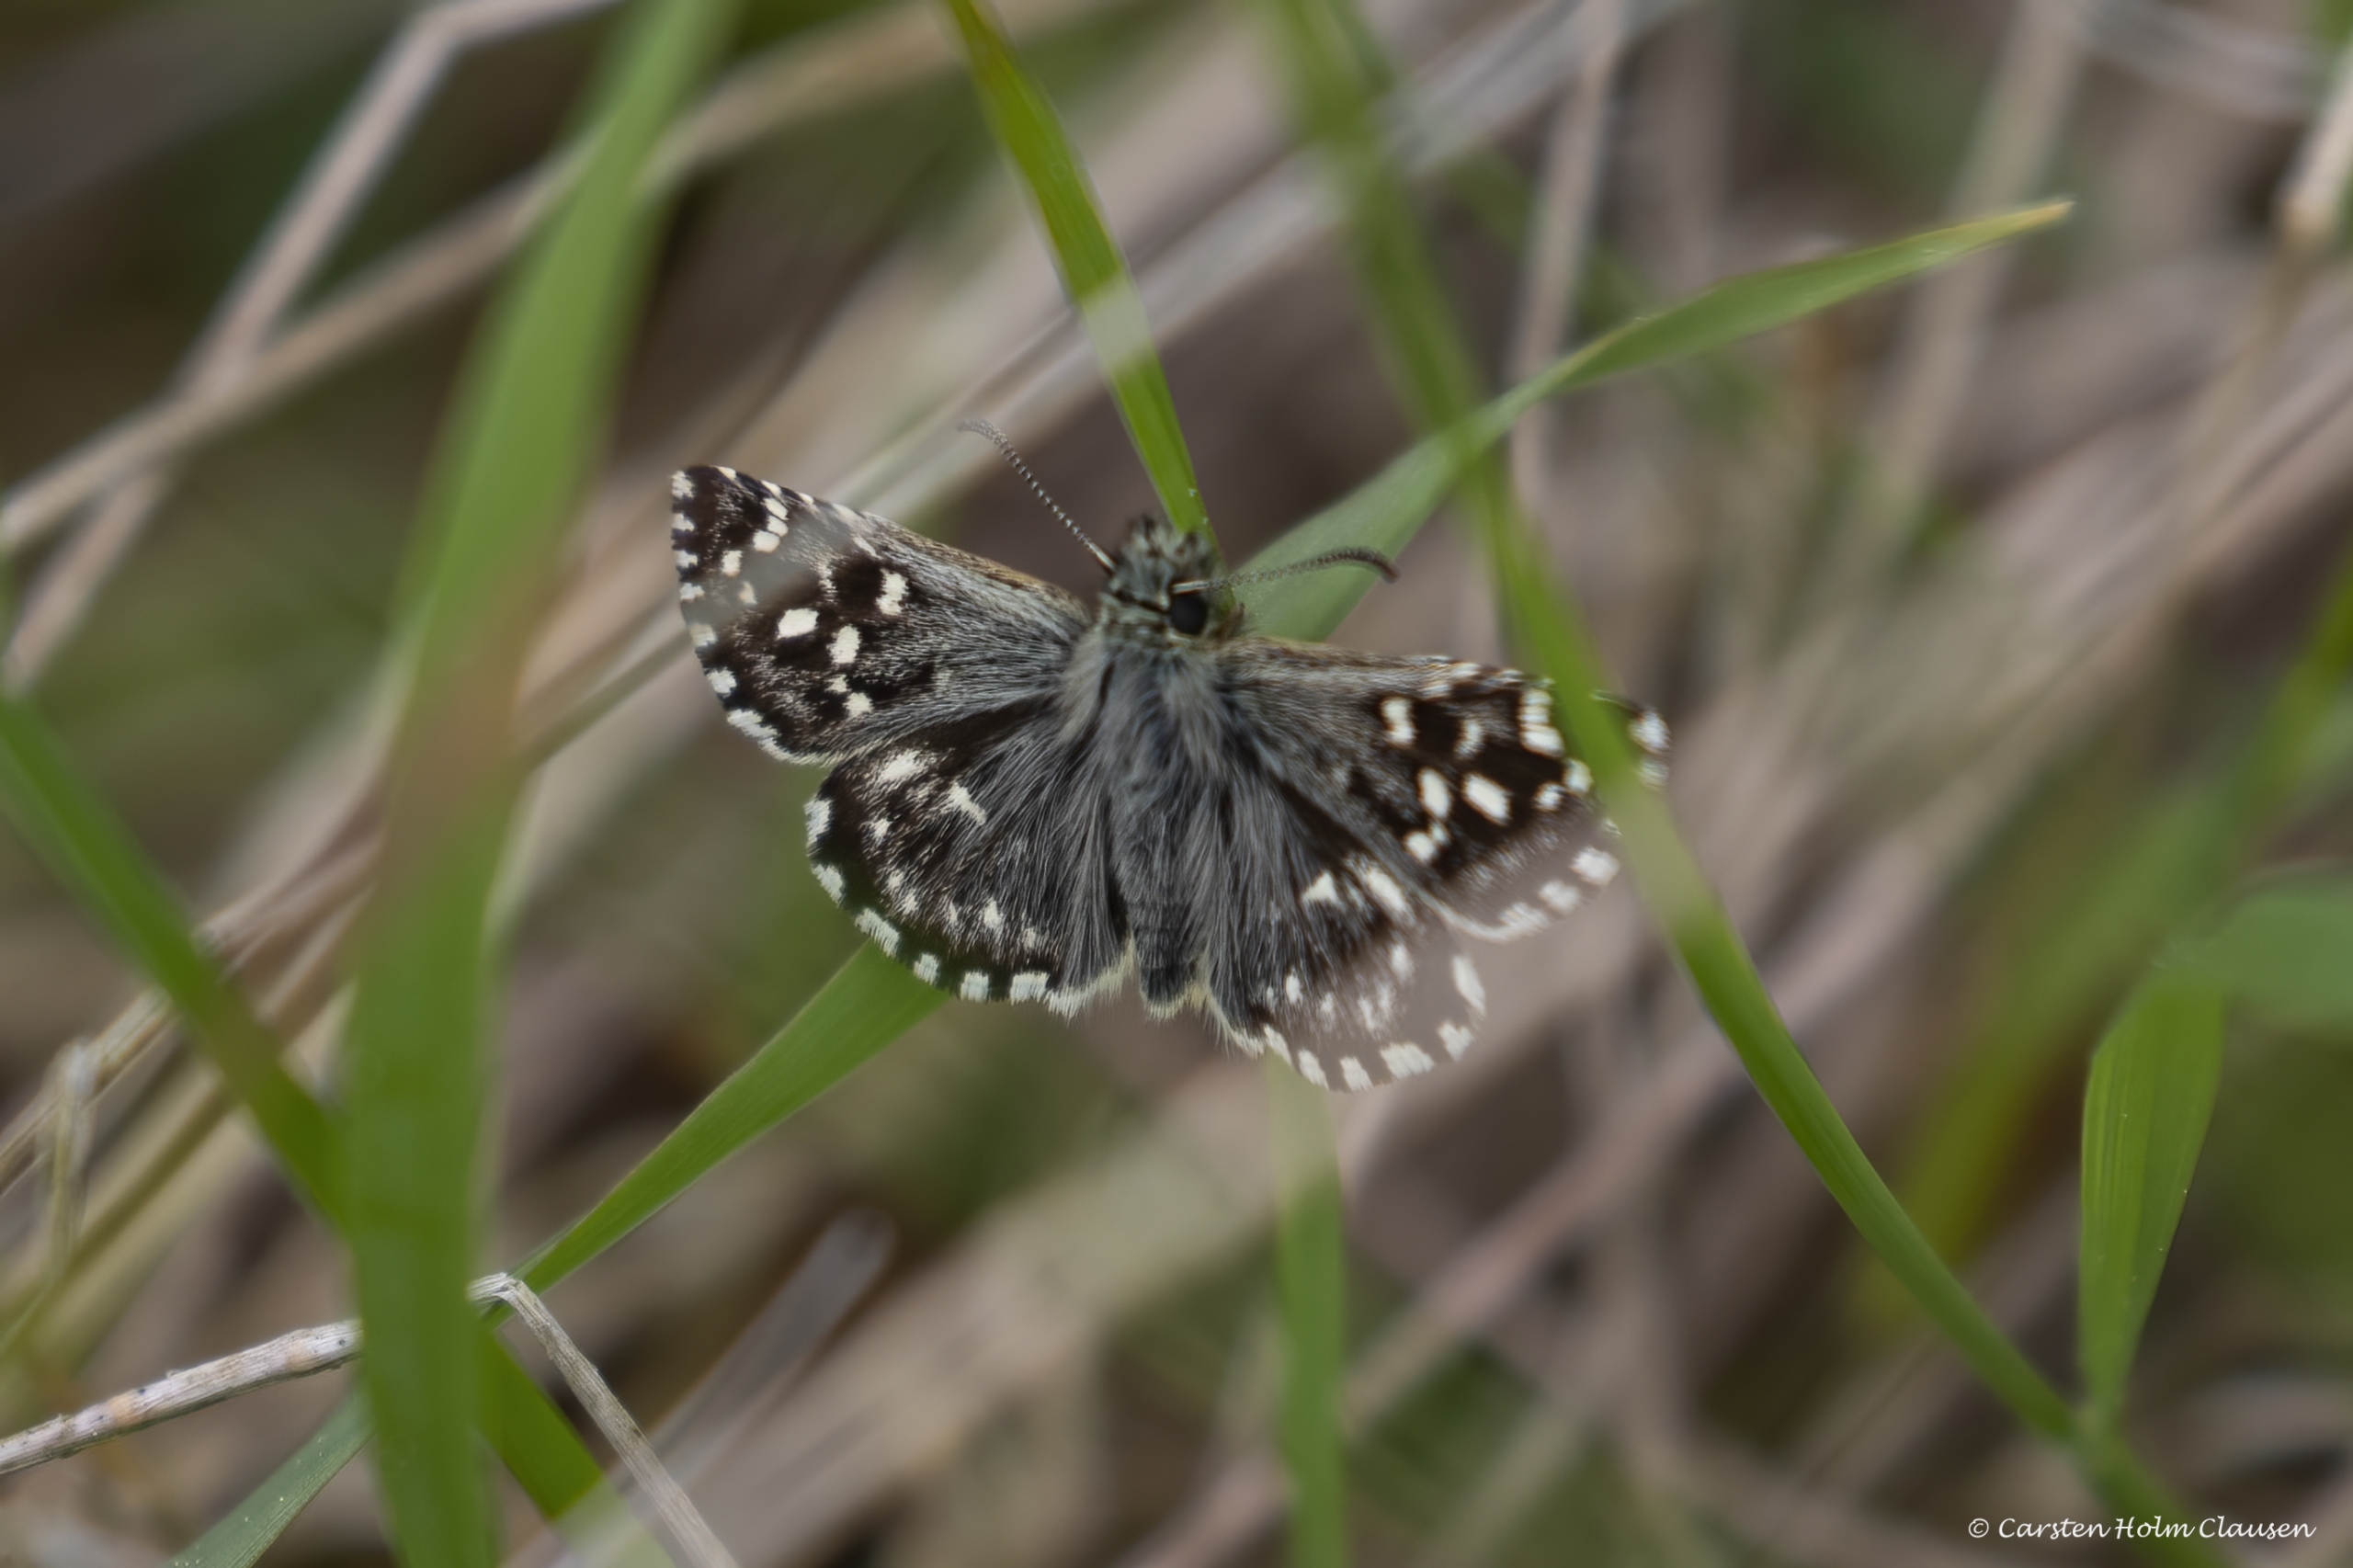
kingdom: Animalia
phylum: Arthropoda
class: Insecta
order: Lepidoptera
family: Hesperiidae
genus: Pyrgus
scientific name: Pyrgus malvae
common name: Spættet bredpande
